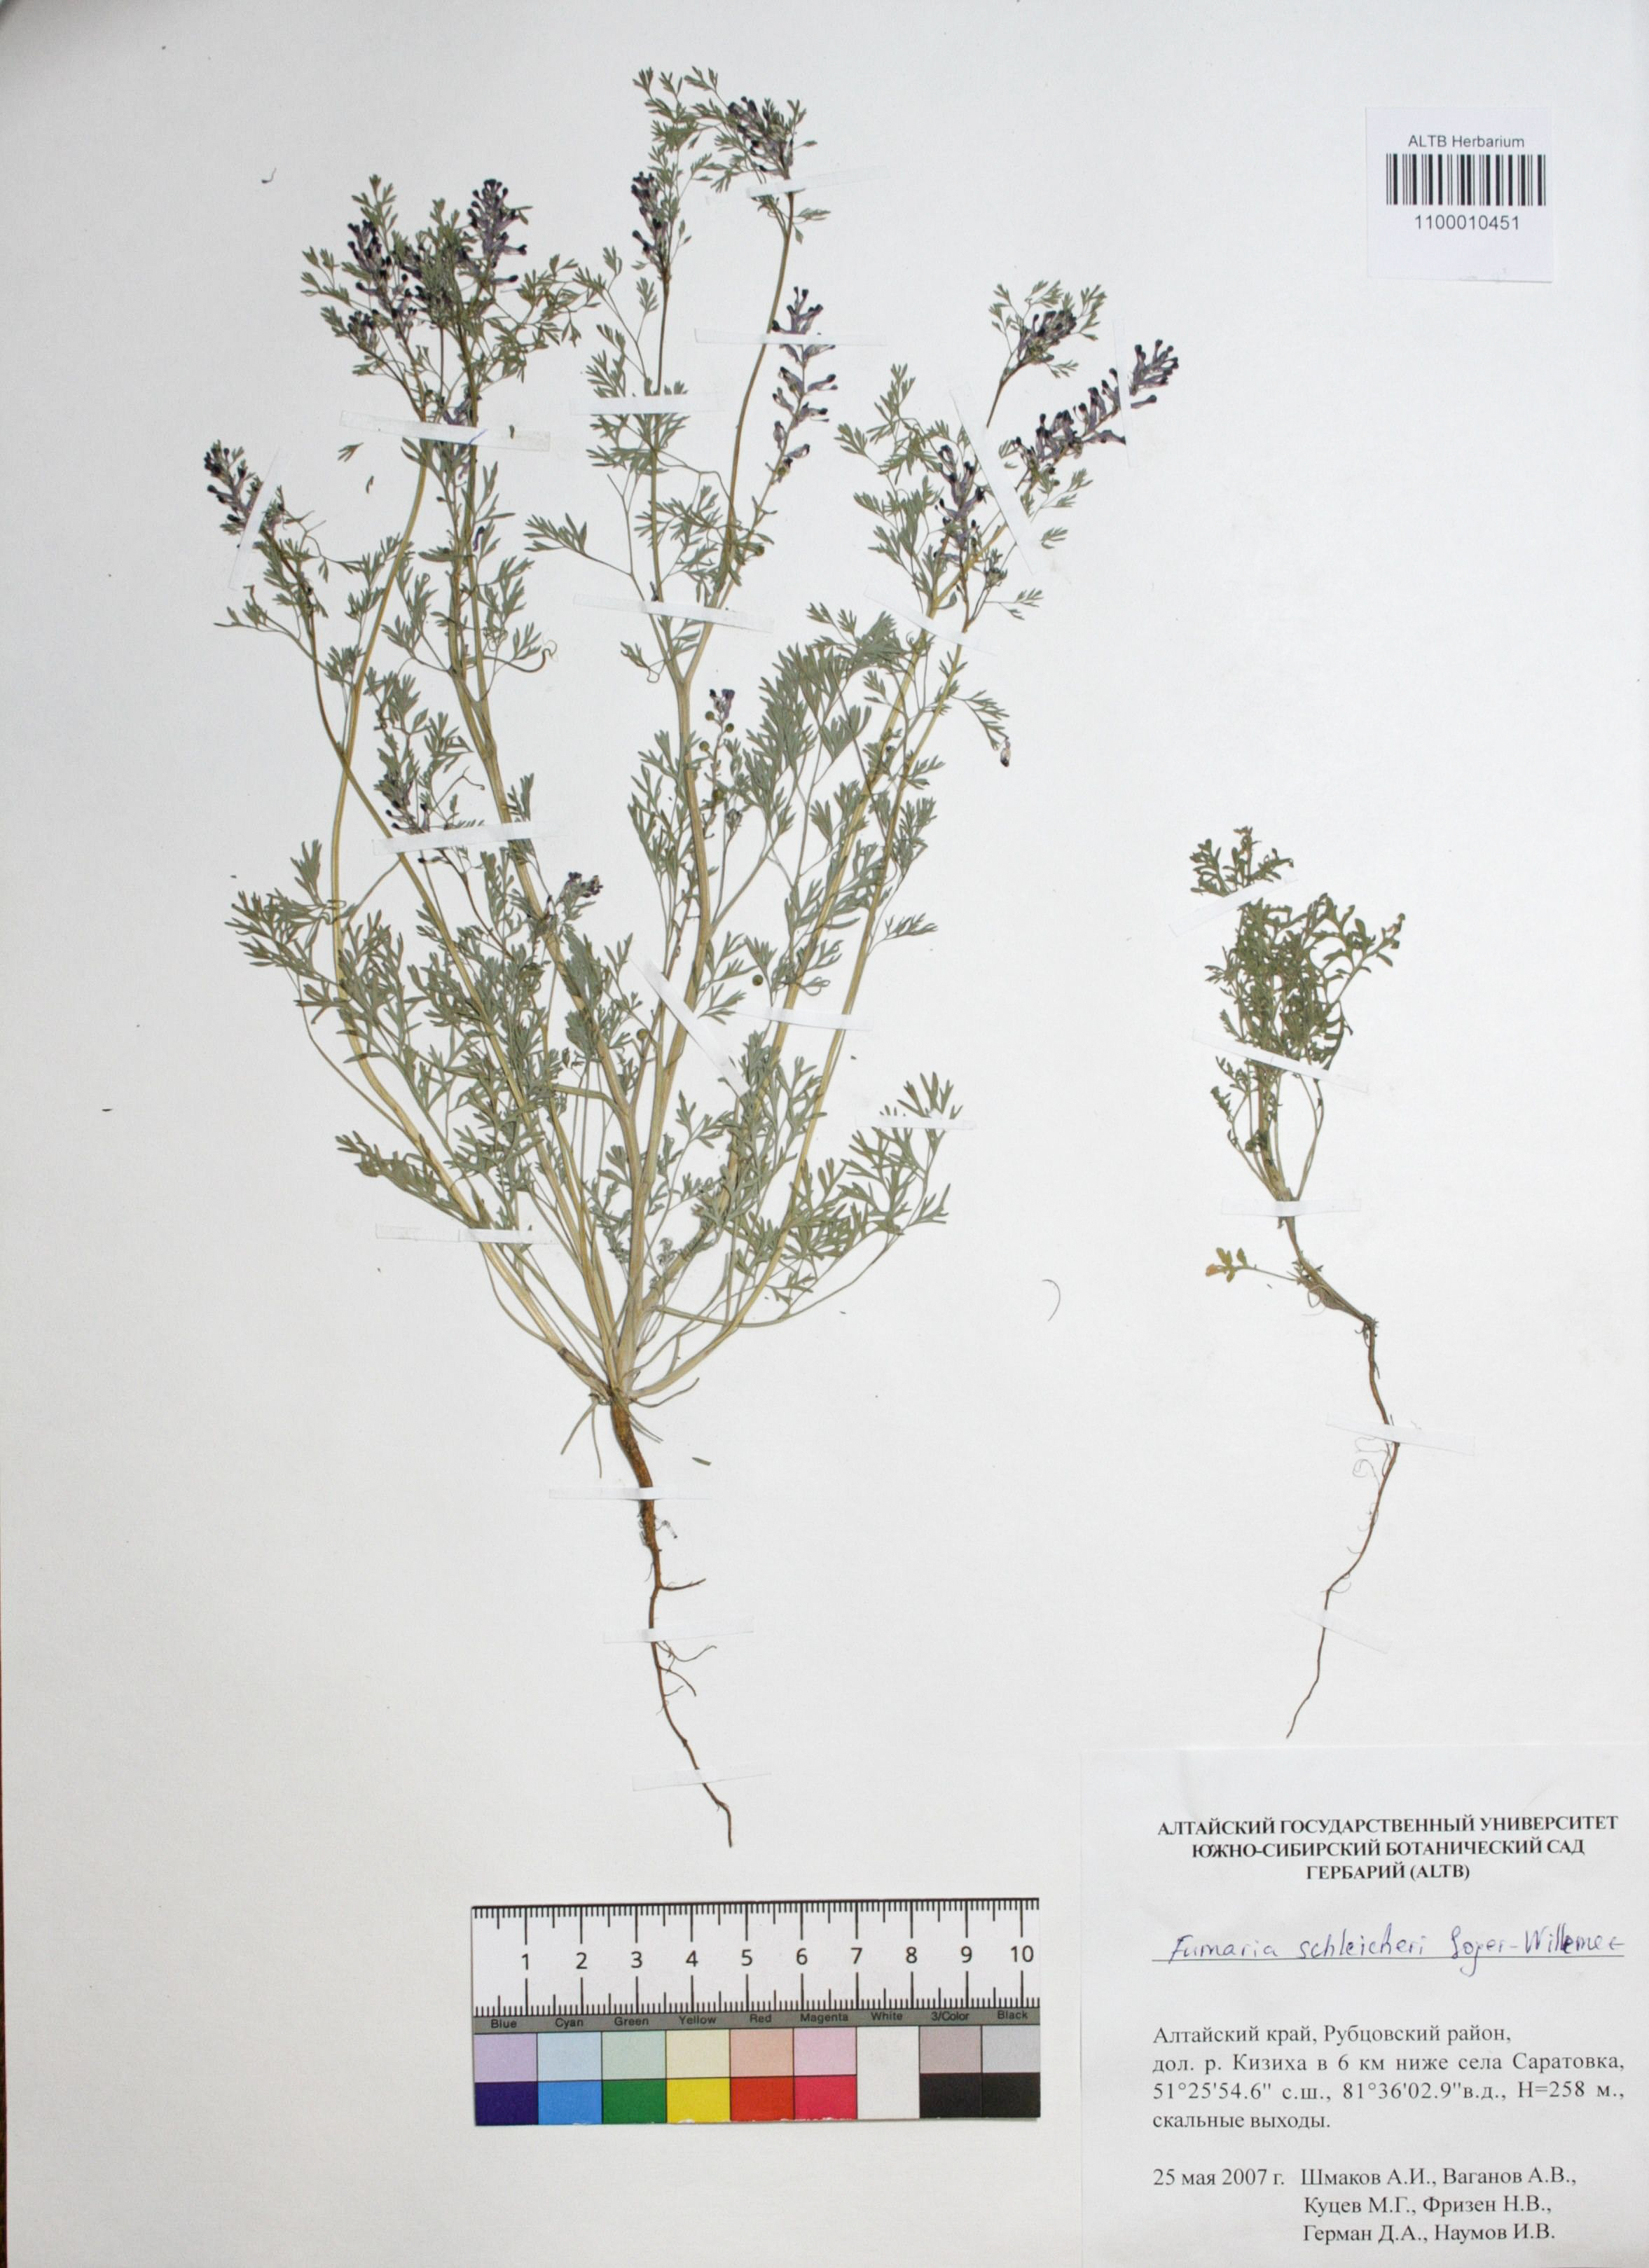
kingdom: Plantae
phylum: Tracheophyta
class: Magnoliopsida
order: Ranunculales
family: Papaveraceae
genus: Fumaria
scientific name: Fumaria schleicheri
